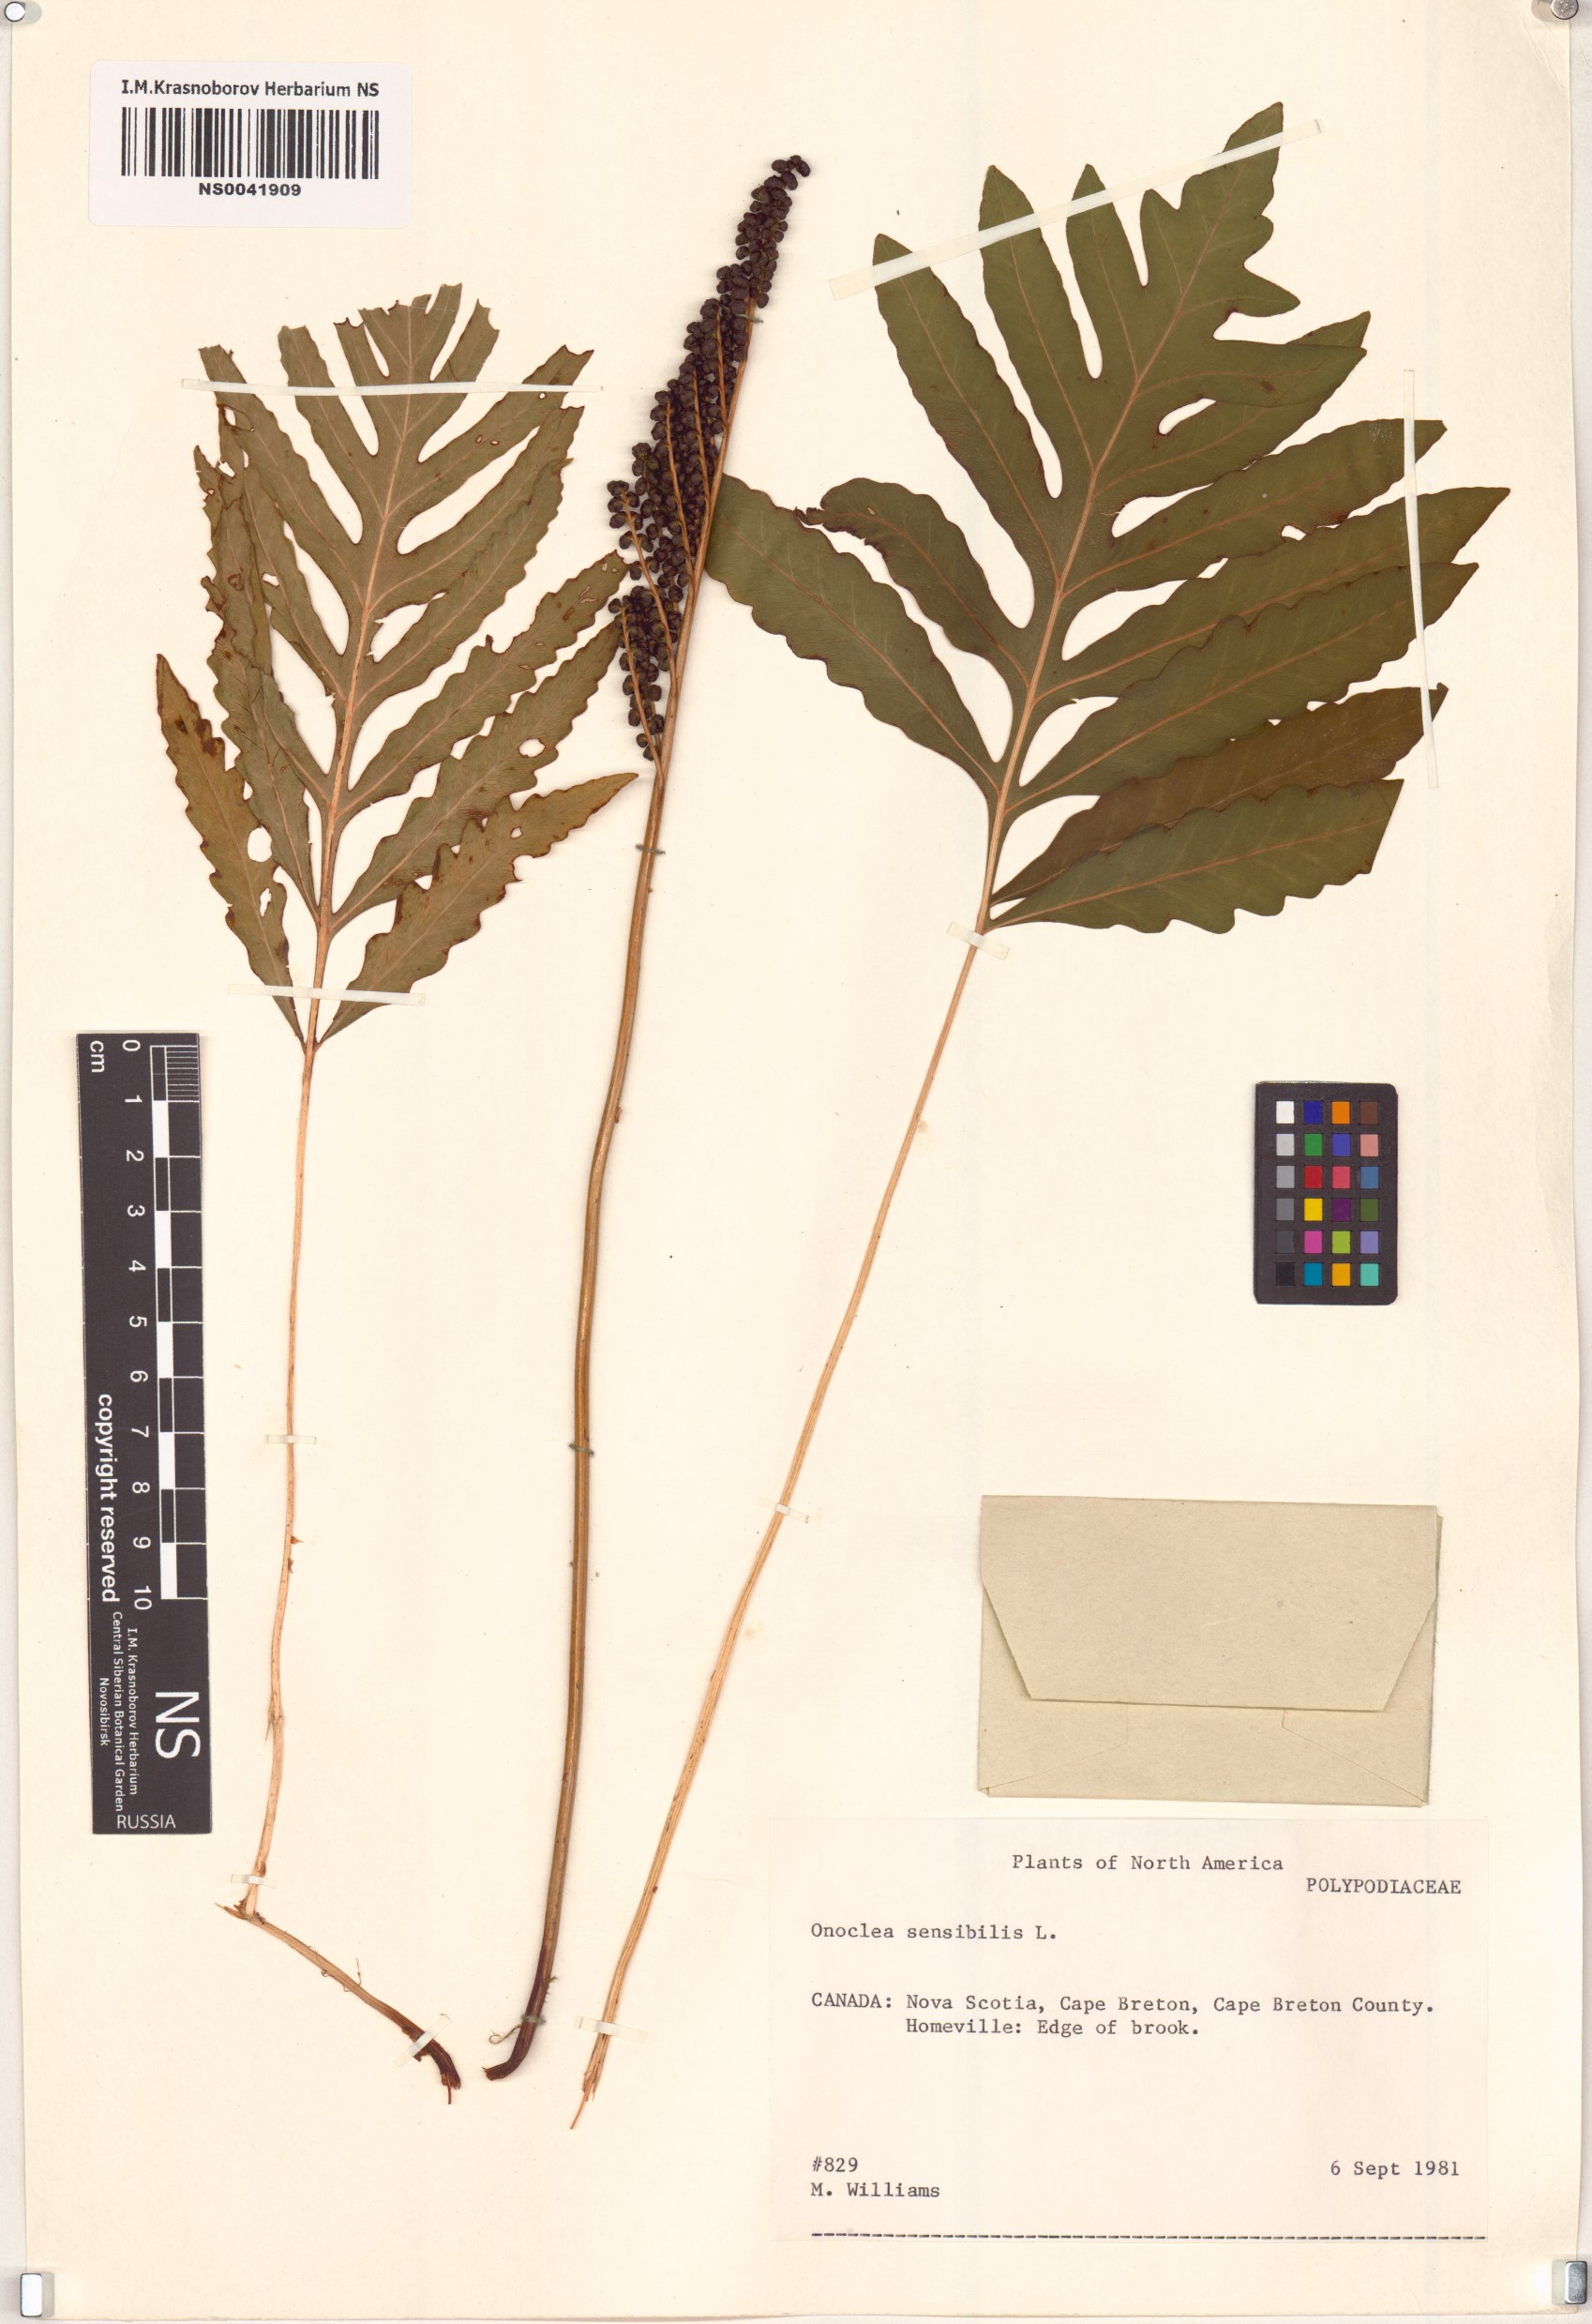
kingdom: Plantae
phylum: Tracheophyta
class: Polypodiopsida
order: Polypodiales
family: Onocleaceae
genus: Onoclea
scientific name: Onoclea sensibilis
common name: Sensitive fern
